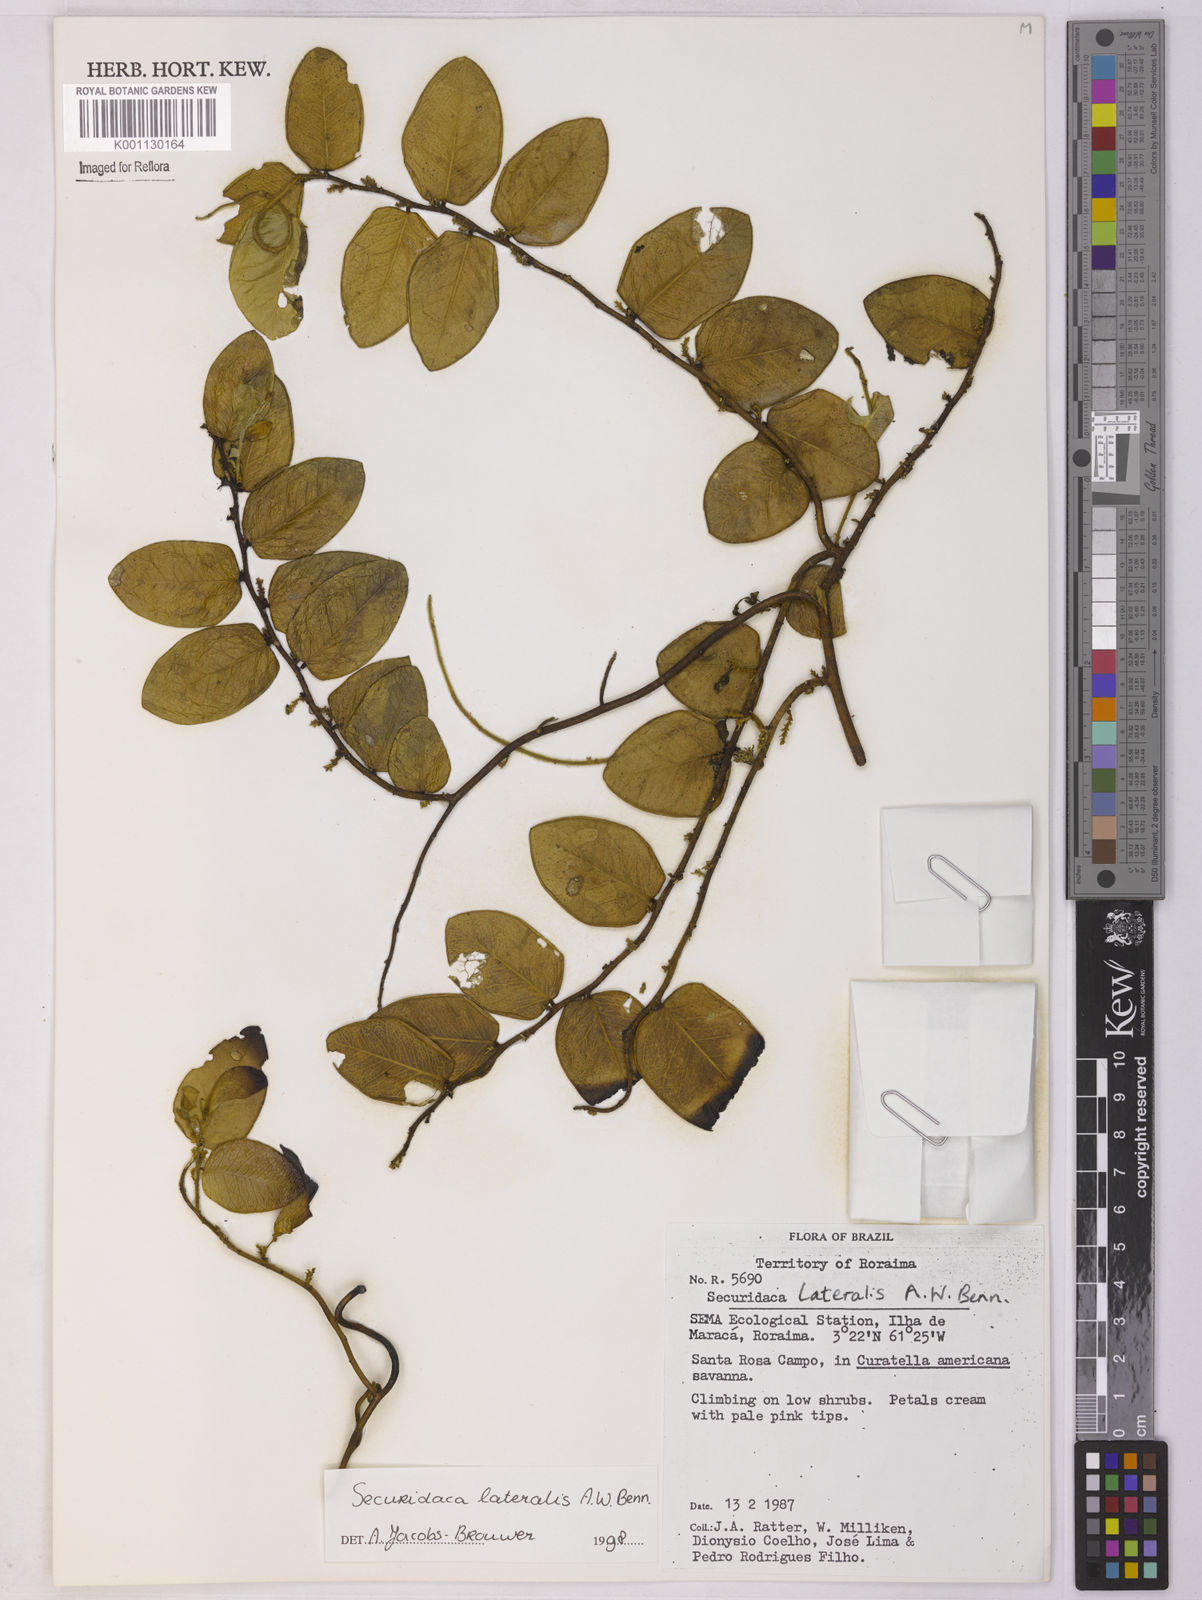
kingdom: Plantae
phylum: Tracheophyta
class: Magnoliopsida
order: Fabales
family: Polygalaceae
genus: Securidaca
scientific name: Securidaca lateralis
